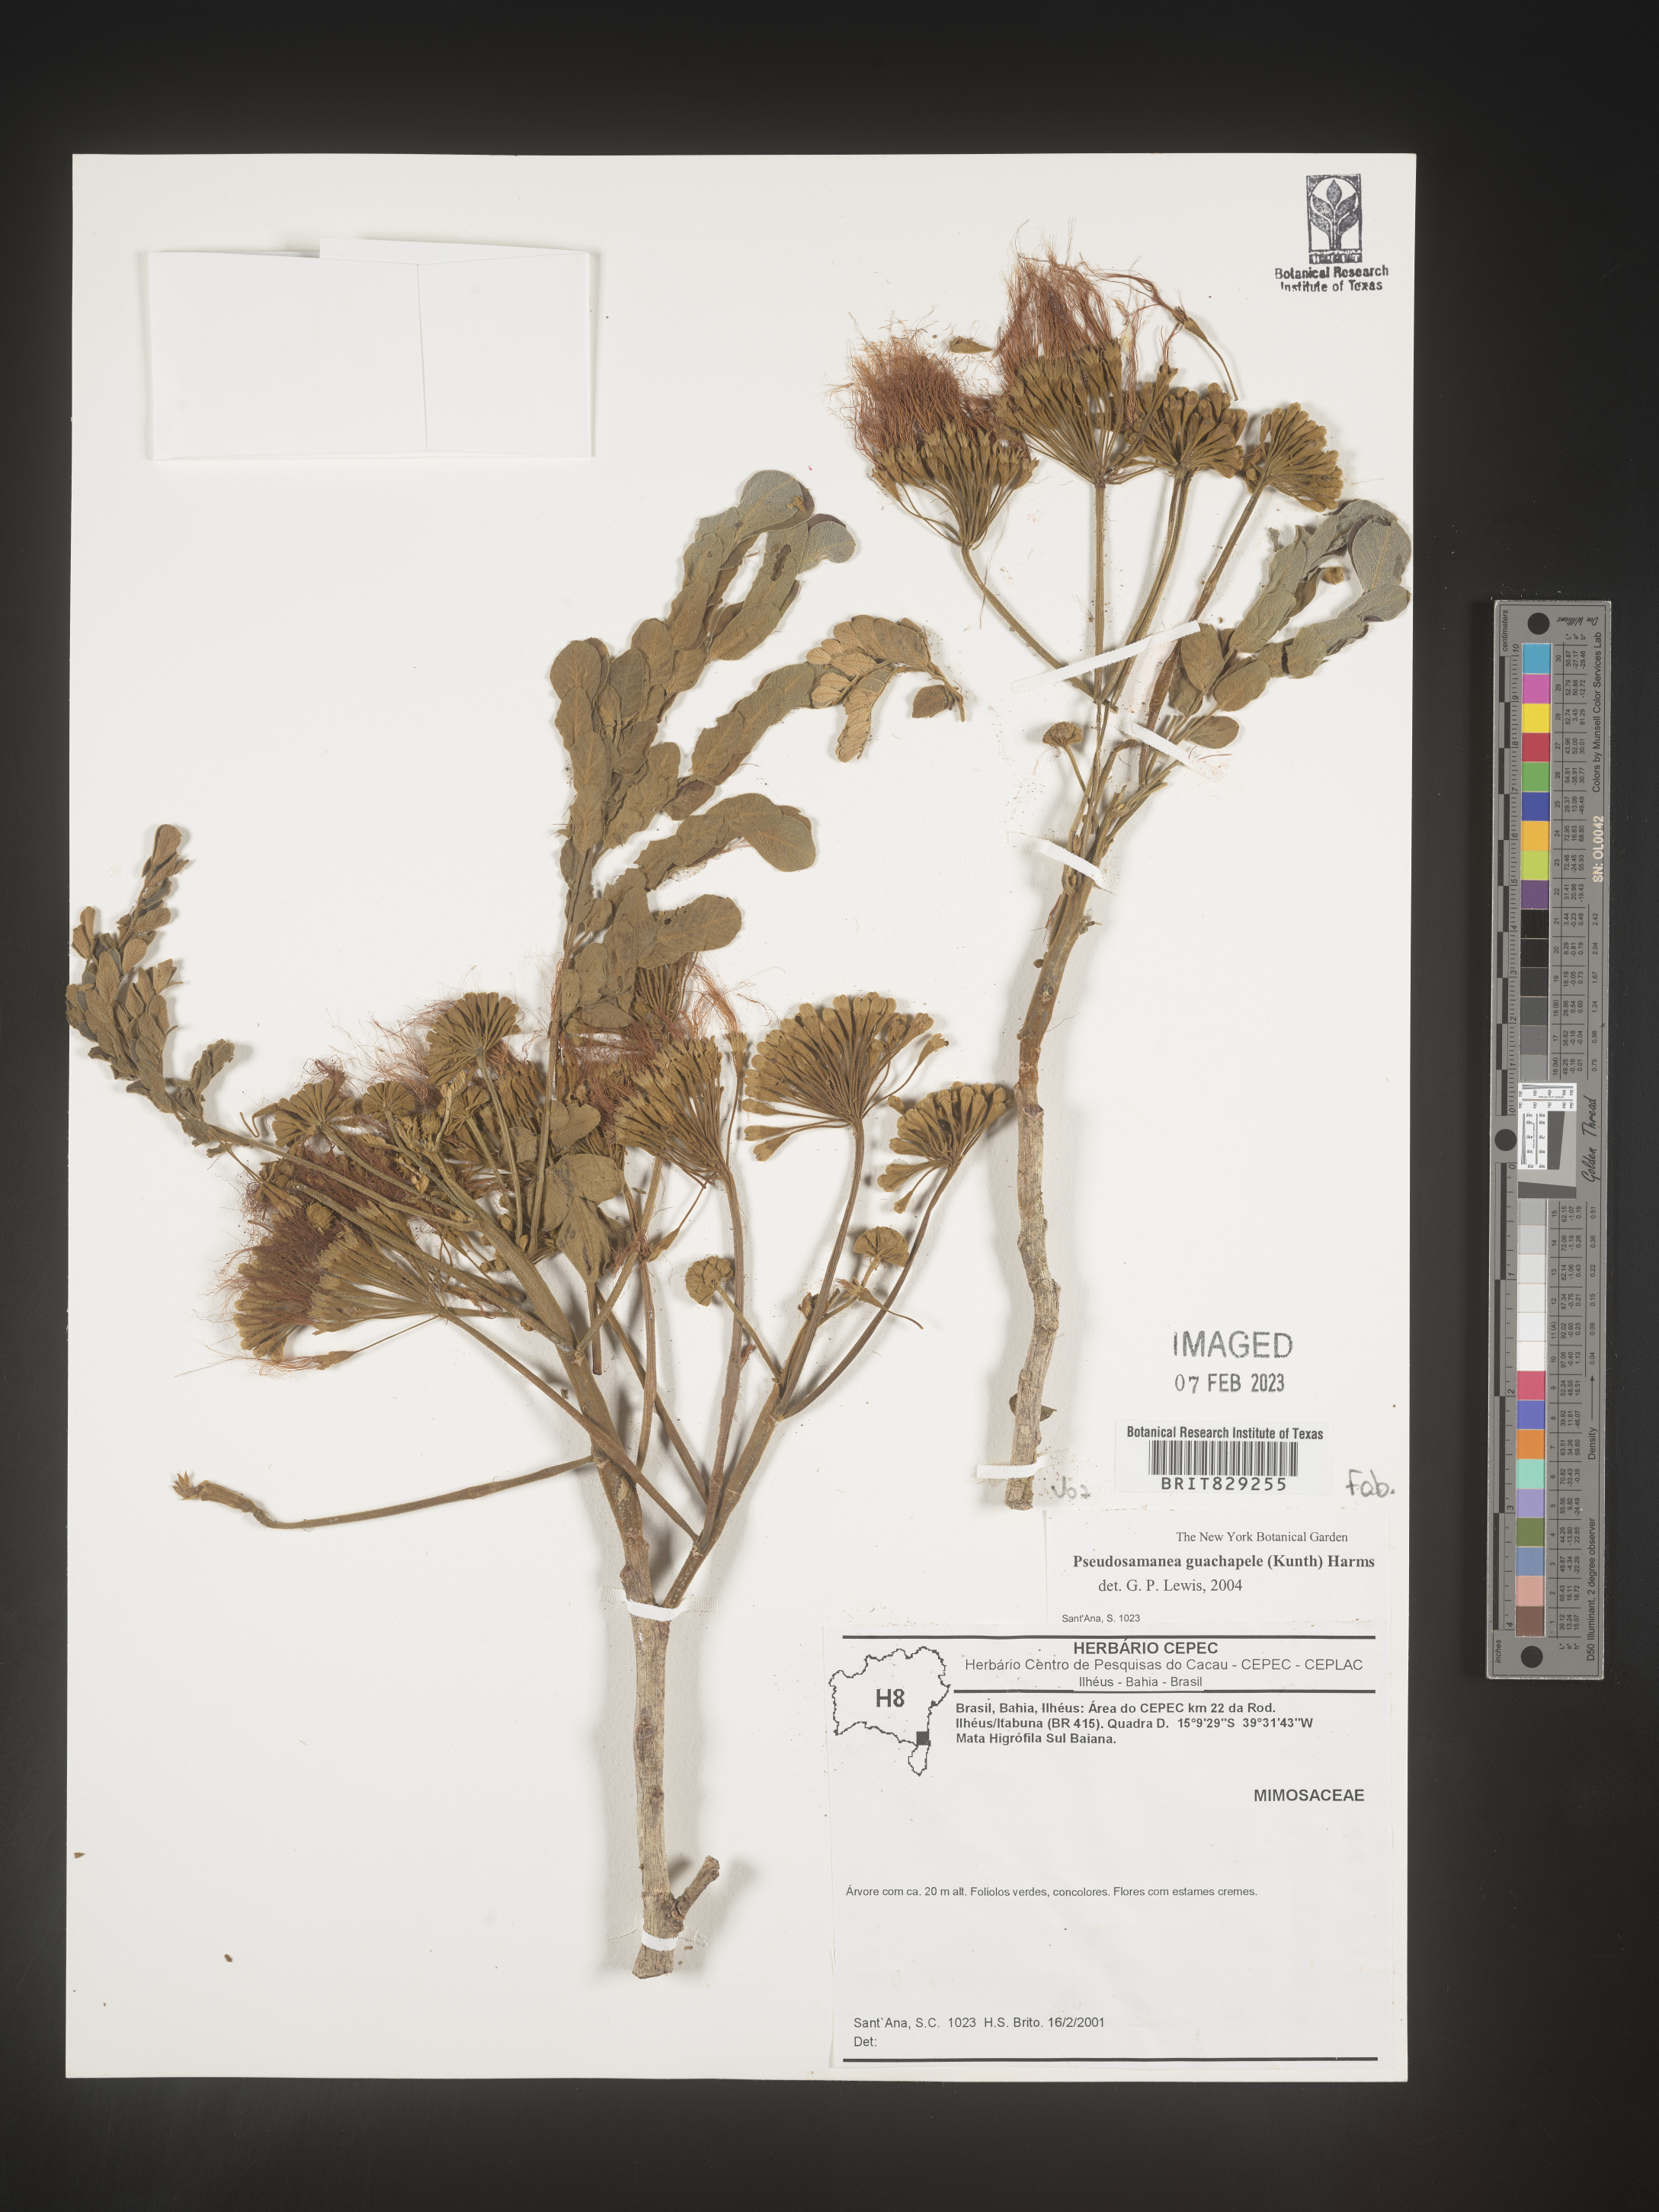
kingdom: Plantae
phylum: Tracheophyta
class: Magnoliopsida
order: Fabales
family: Fabaceae
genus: Pseudosamanea
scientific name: Pseudosamanea
